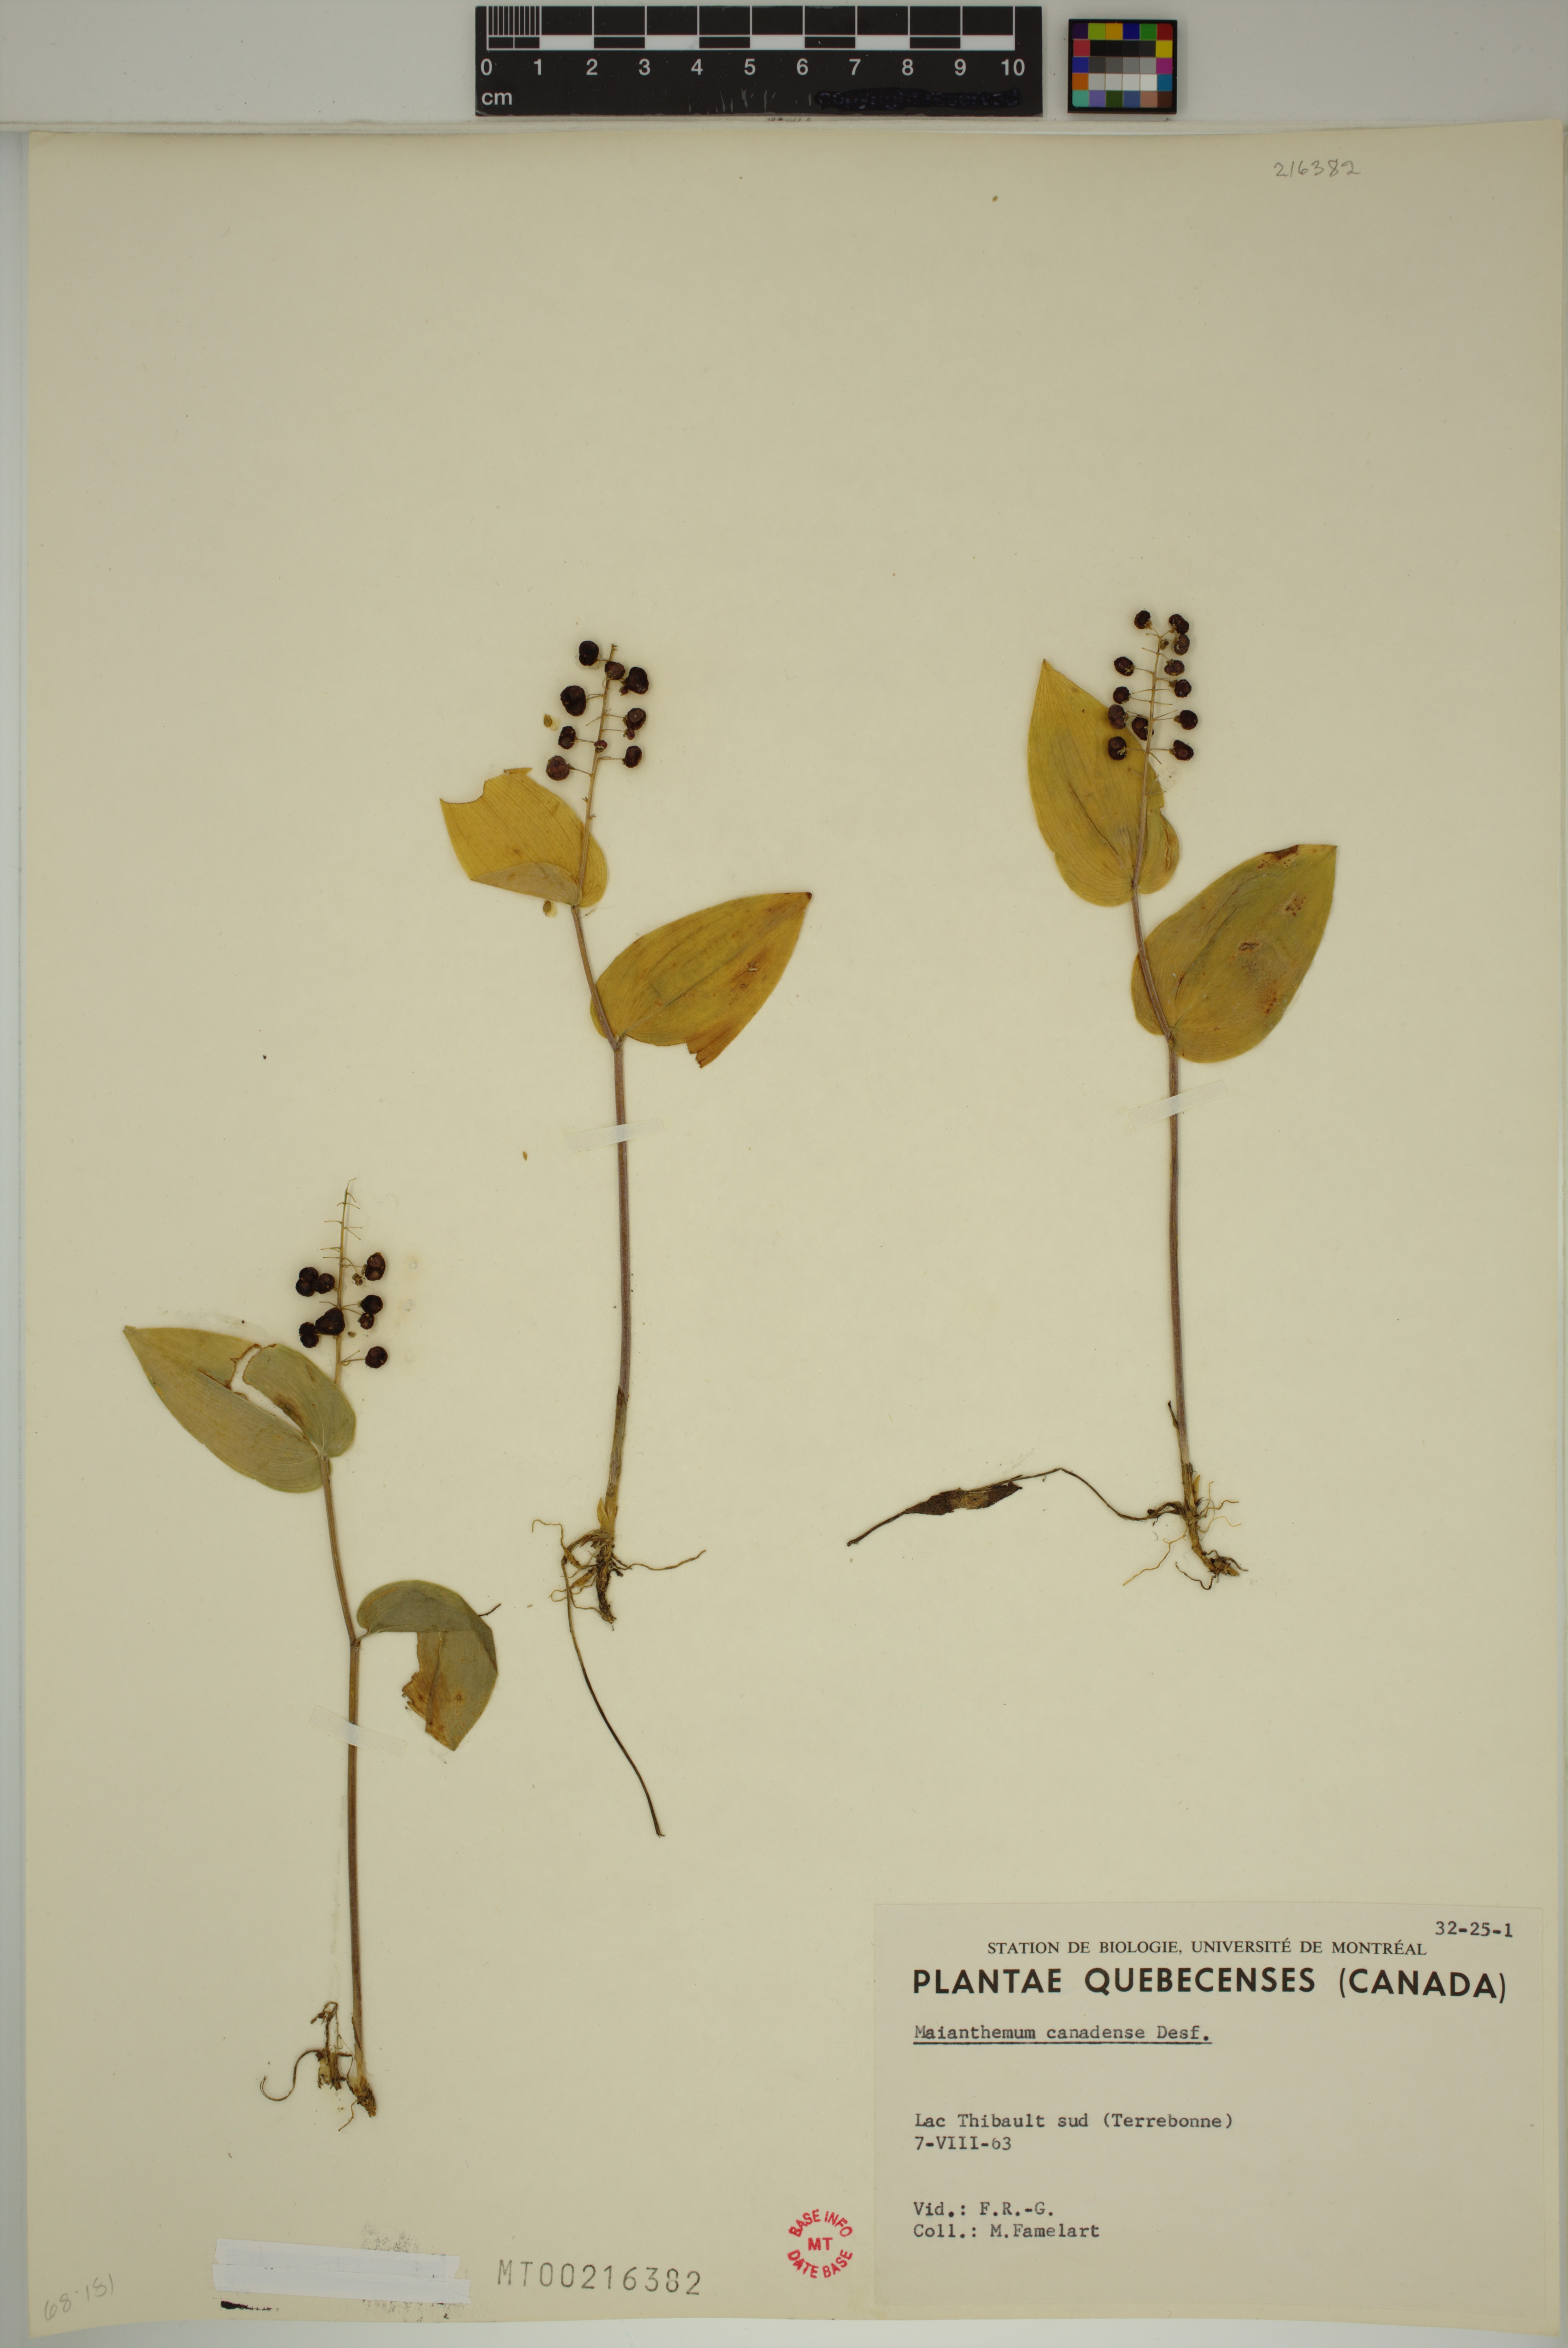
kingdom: Plantae
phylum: Tracheophyta
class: Liliopsida
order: Asparagales
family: Asparagaceae
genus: Maianthemum
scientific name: Maianthemum canadense
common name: False lily-of-the-valley
